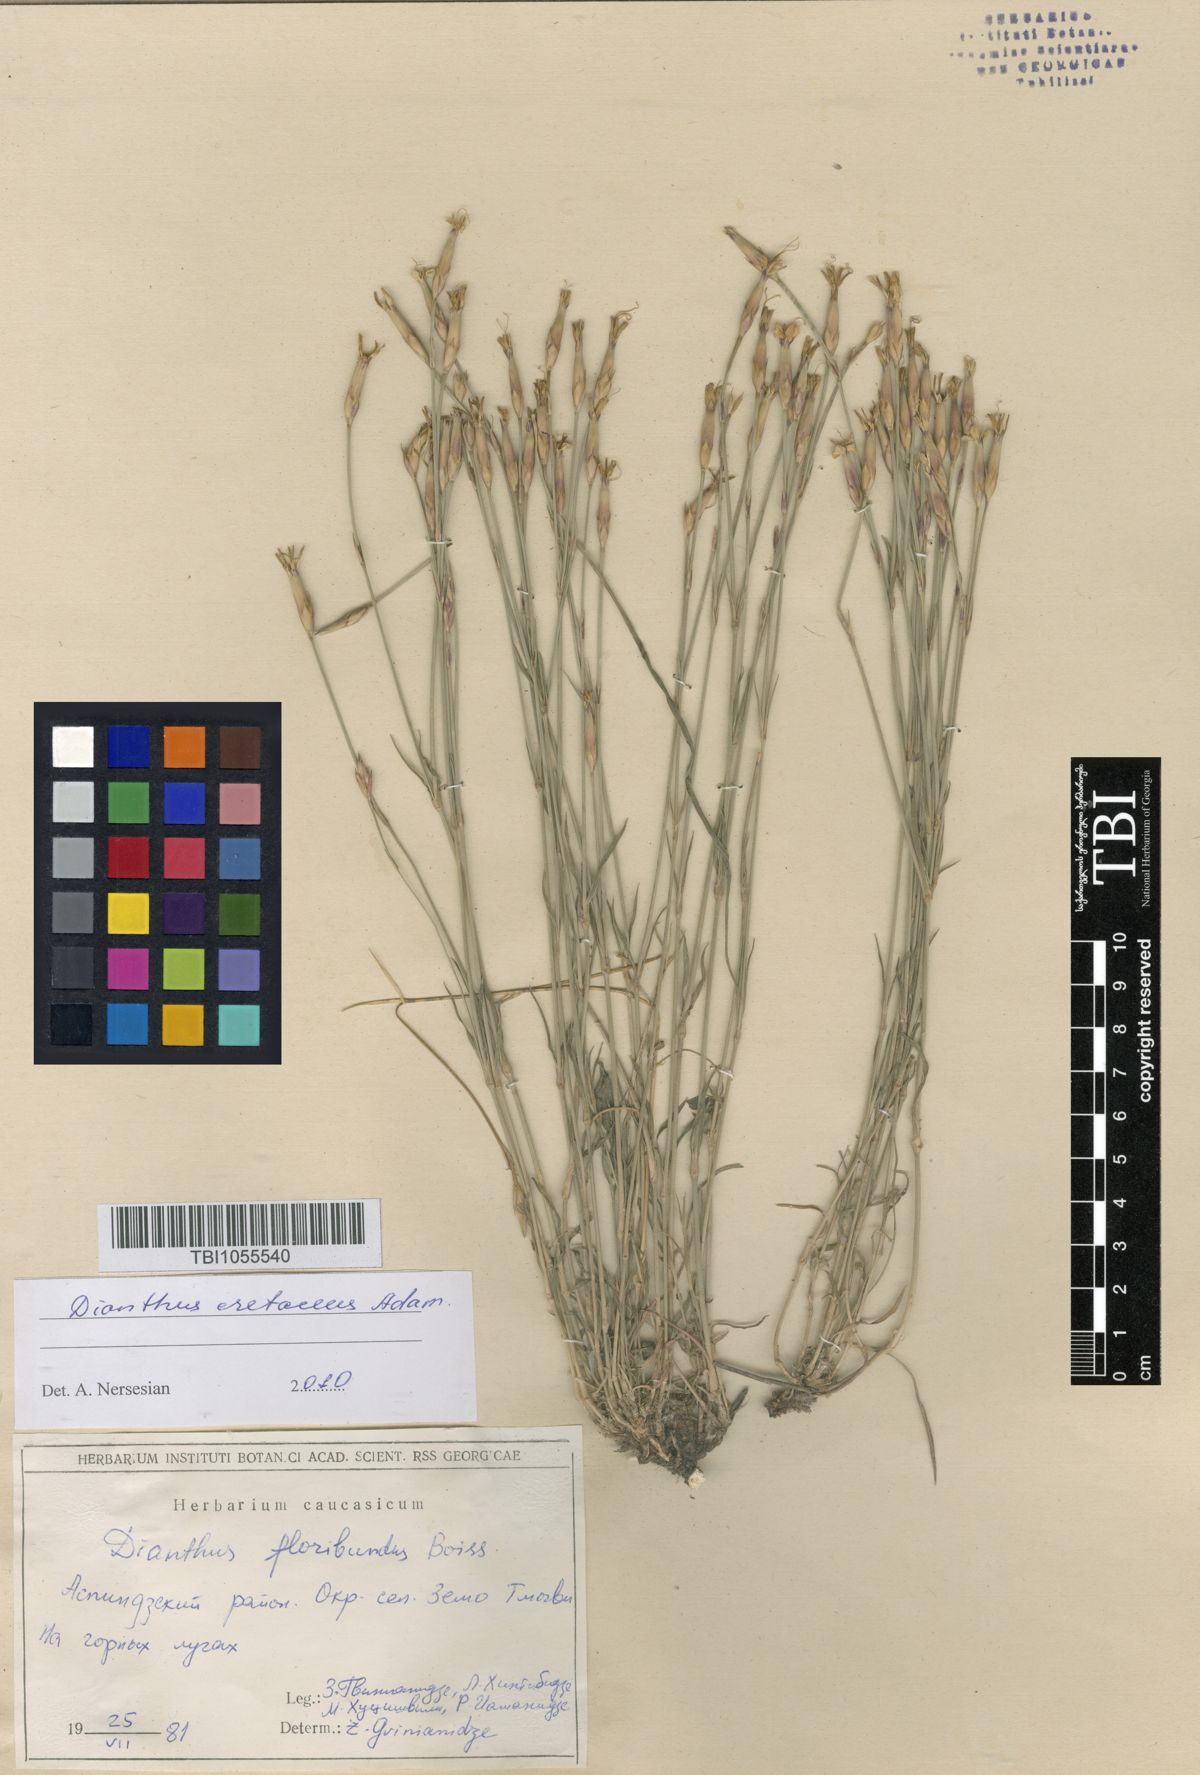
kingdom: Plantae
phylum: Tracheophyta
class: Magnoliopsida
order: Caryophyllales
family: Caryophyllaceae
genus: Dianthus
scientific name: Dianthus floribundus
